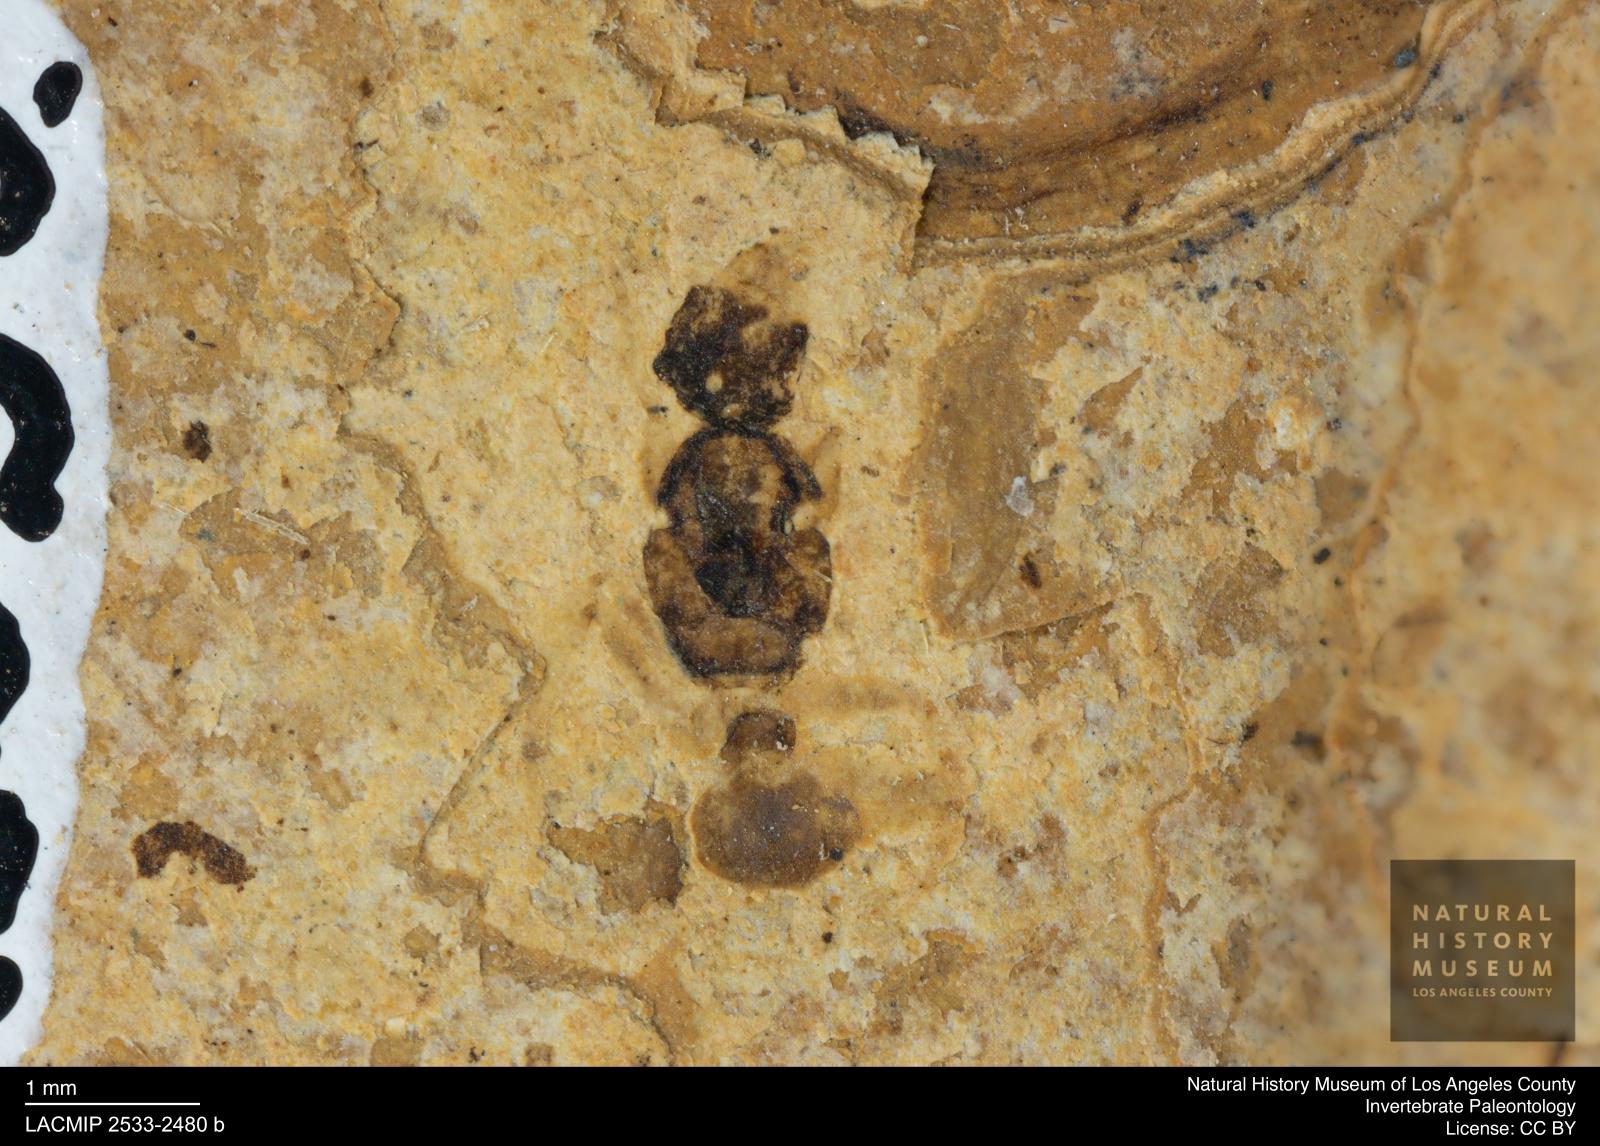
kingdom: Animalia
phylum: Arthropoda
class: Insecta
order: Hymenoptera
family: Formicidae
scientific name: Formicidae
